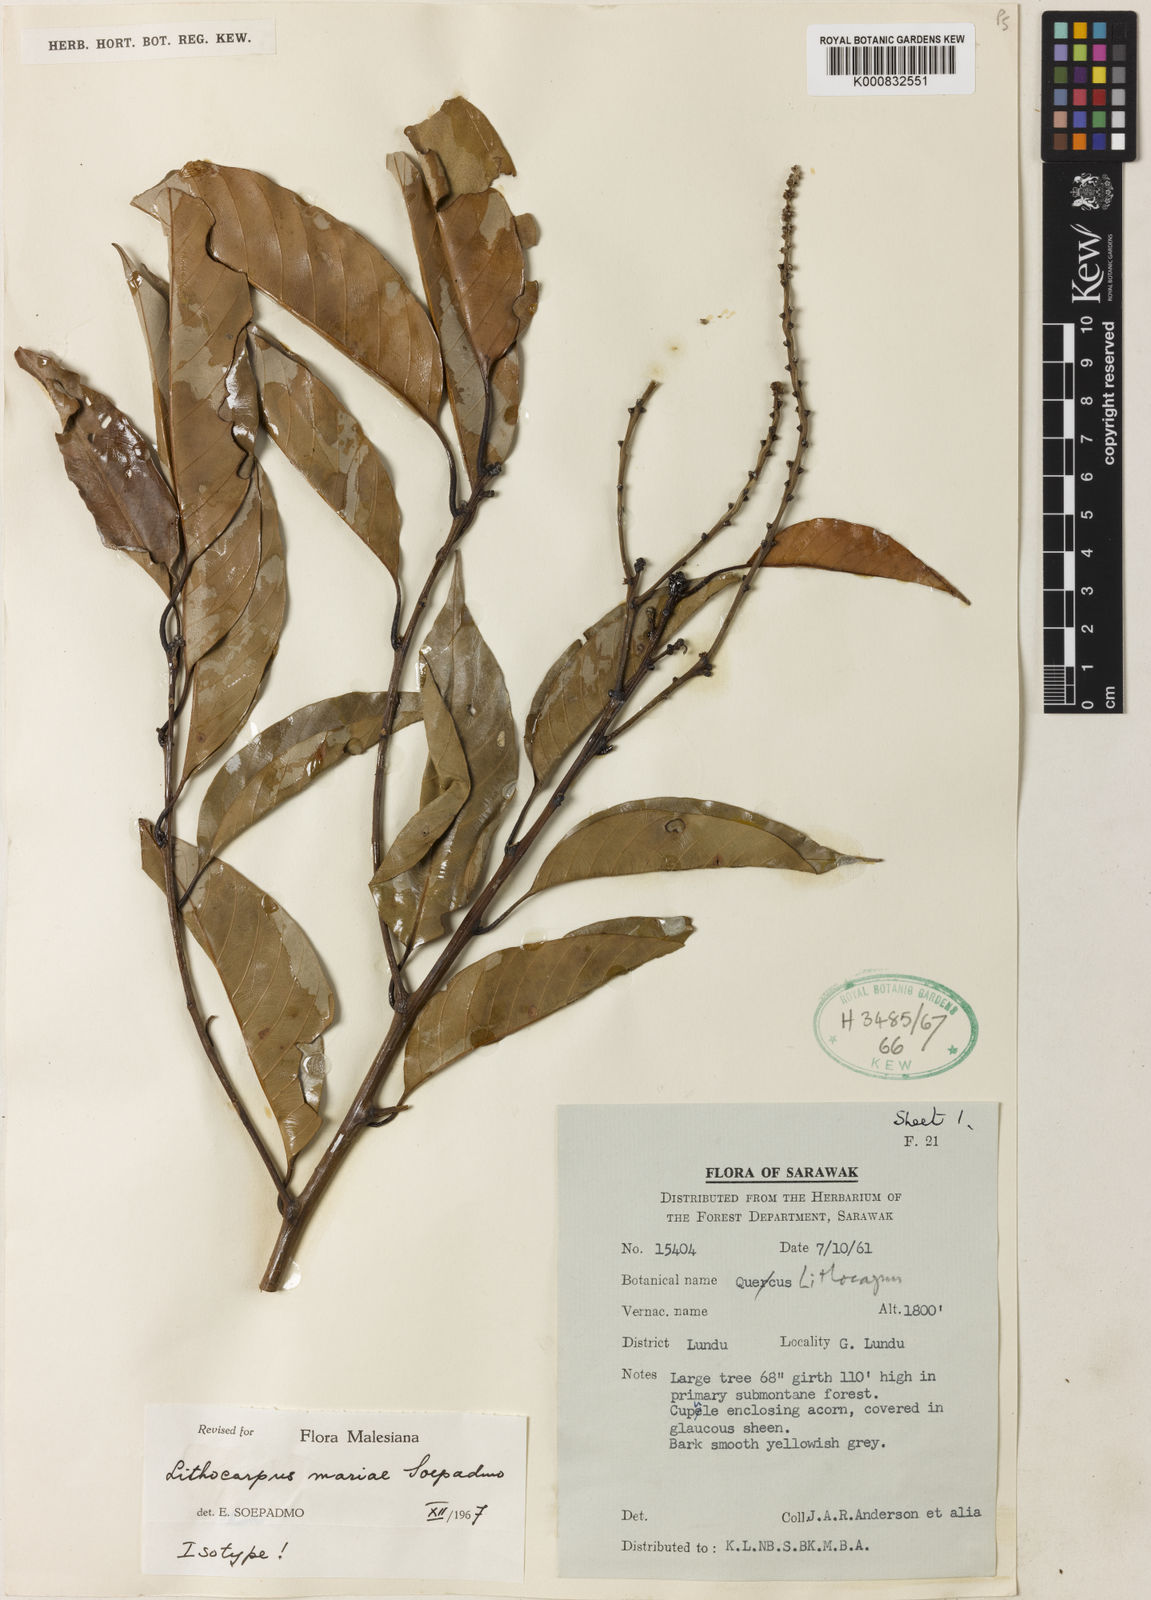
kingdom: Plantae
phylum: Tracheophyta
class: Magnoliopsida
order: Fagales
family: Fagaceae
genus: Lithocarpus
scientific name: Lithocarpus mariae
